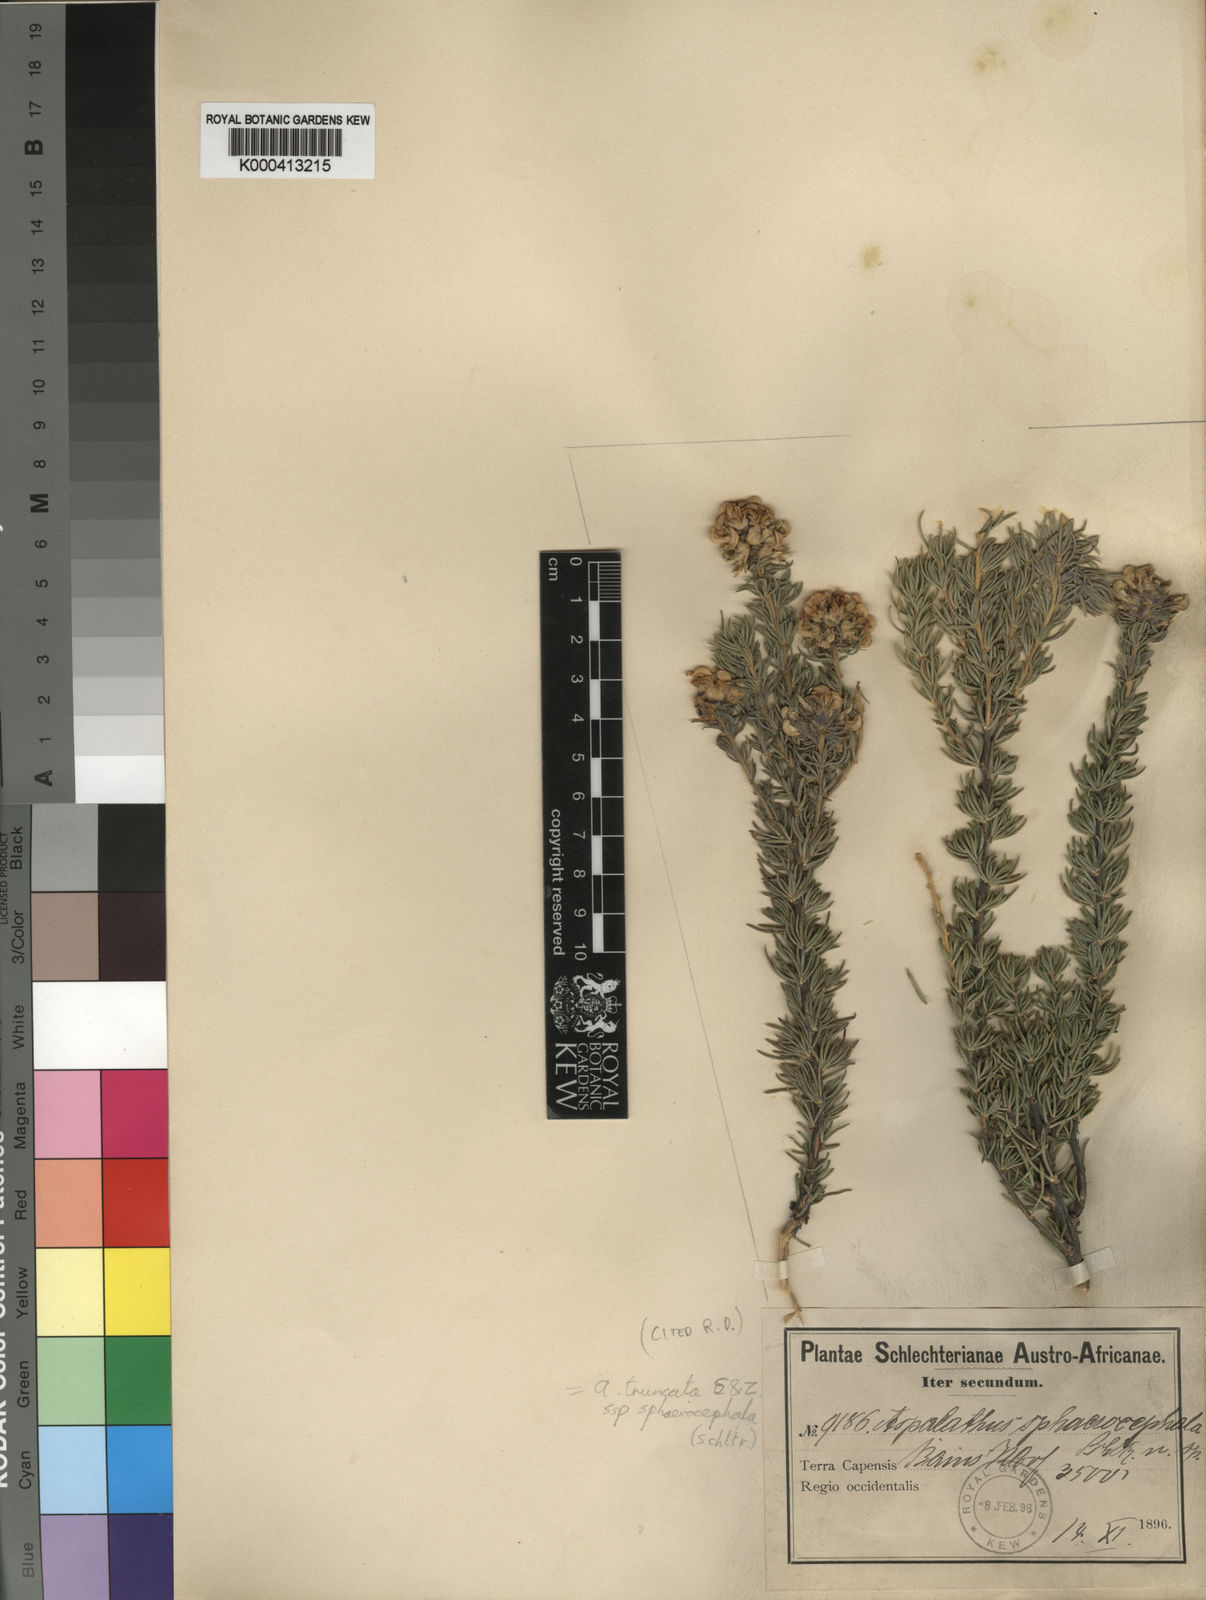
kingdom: Plantae
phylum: Tracheophyta
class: Magnoliopsida
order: Fabales
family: Fabaceae
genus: Aspalathus
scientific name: Aspalathus truncata
